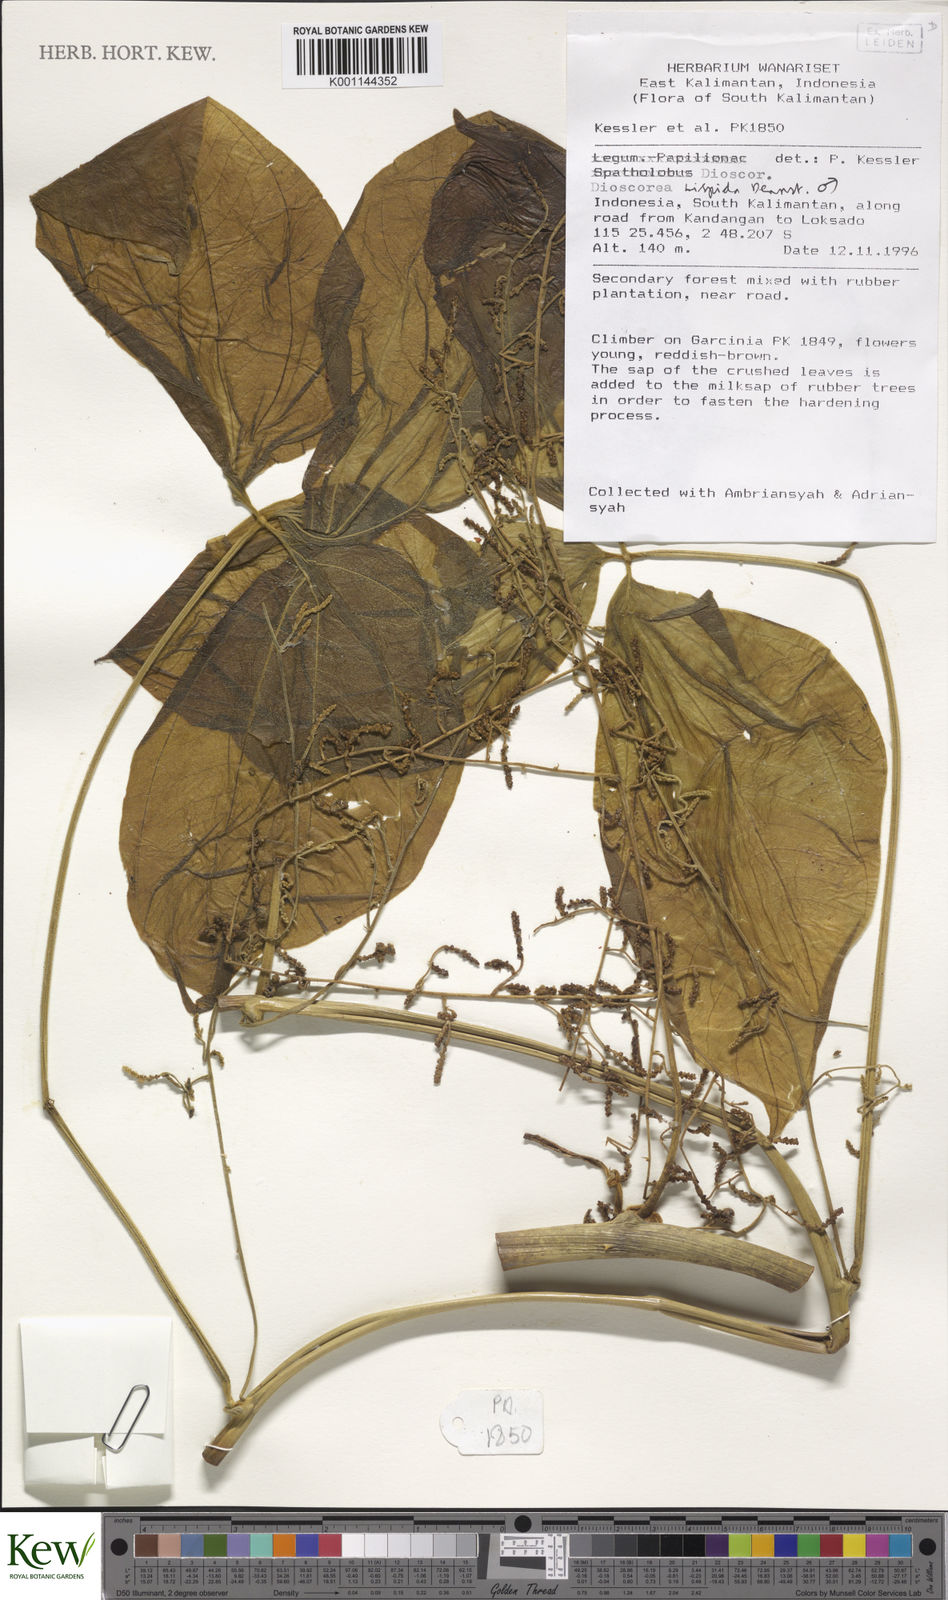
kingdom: Plantae
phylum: Tracheophyta
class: Liliopsida
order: Dioscoreales
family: Dioscoreaceae
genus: Dioscorea
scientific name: Dioscorea hispida
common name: Asiatic bitter yam
